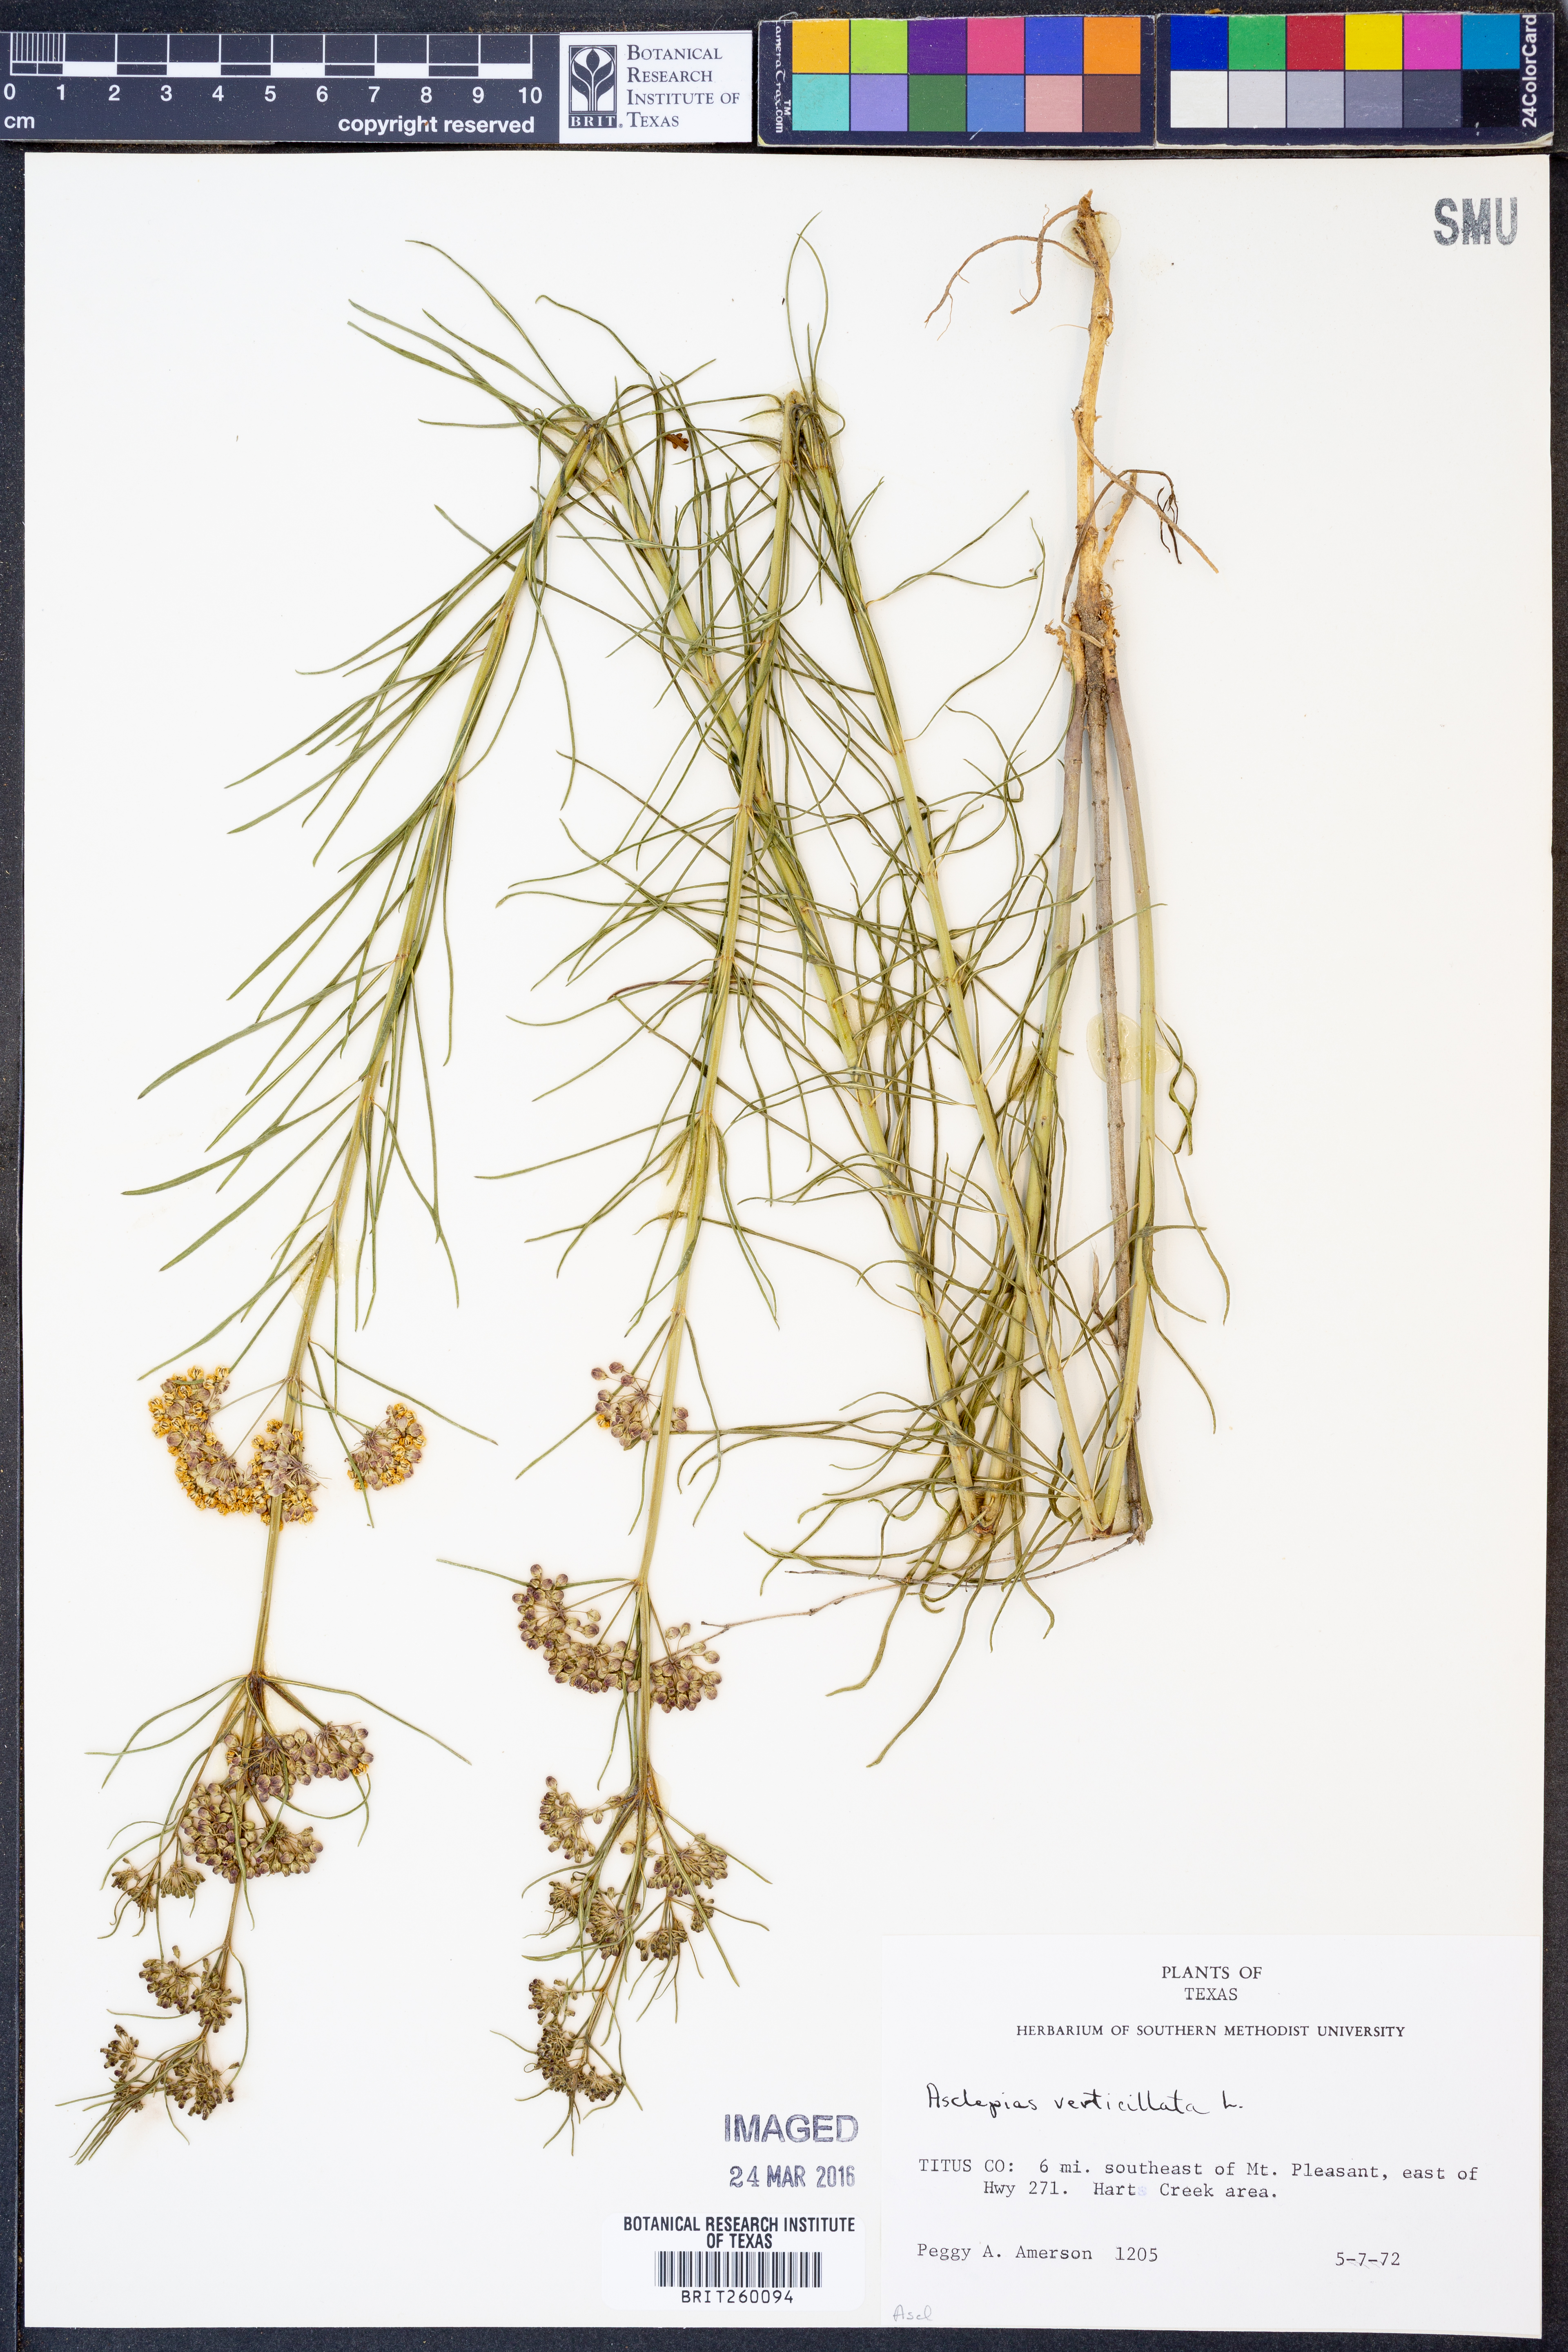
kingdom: Plantae
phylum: Tracheophyta
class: Magnoliopsida
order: Gentianales
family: Apocynaceae
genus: Asclepias
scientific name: Asclepias verticillata
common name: Eastern whorled milkweed
